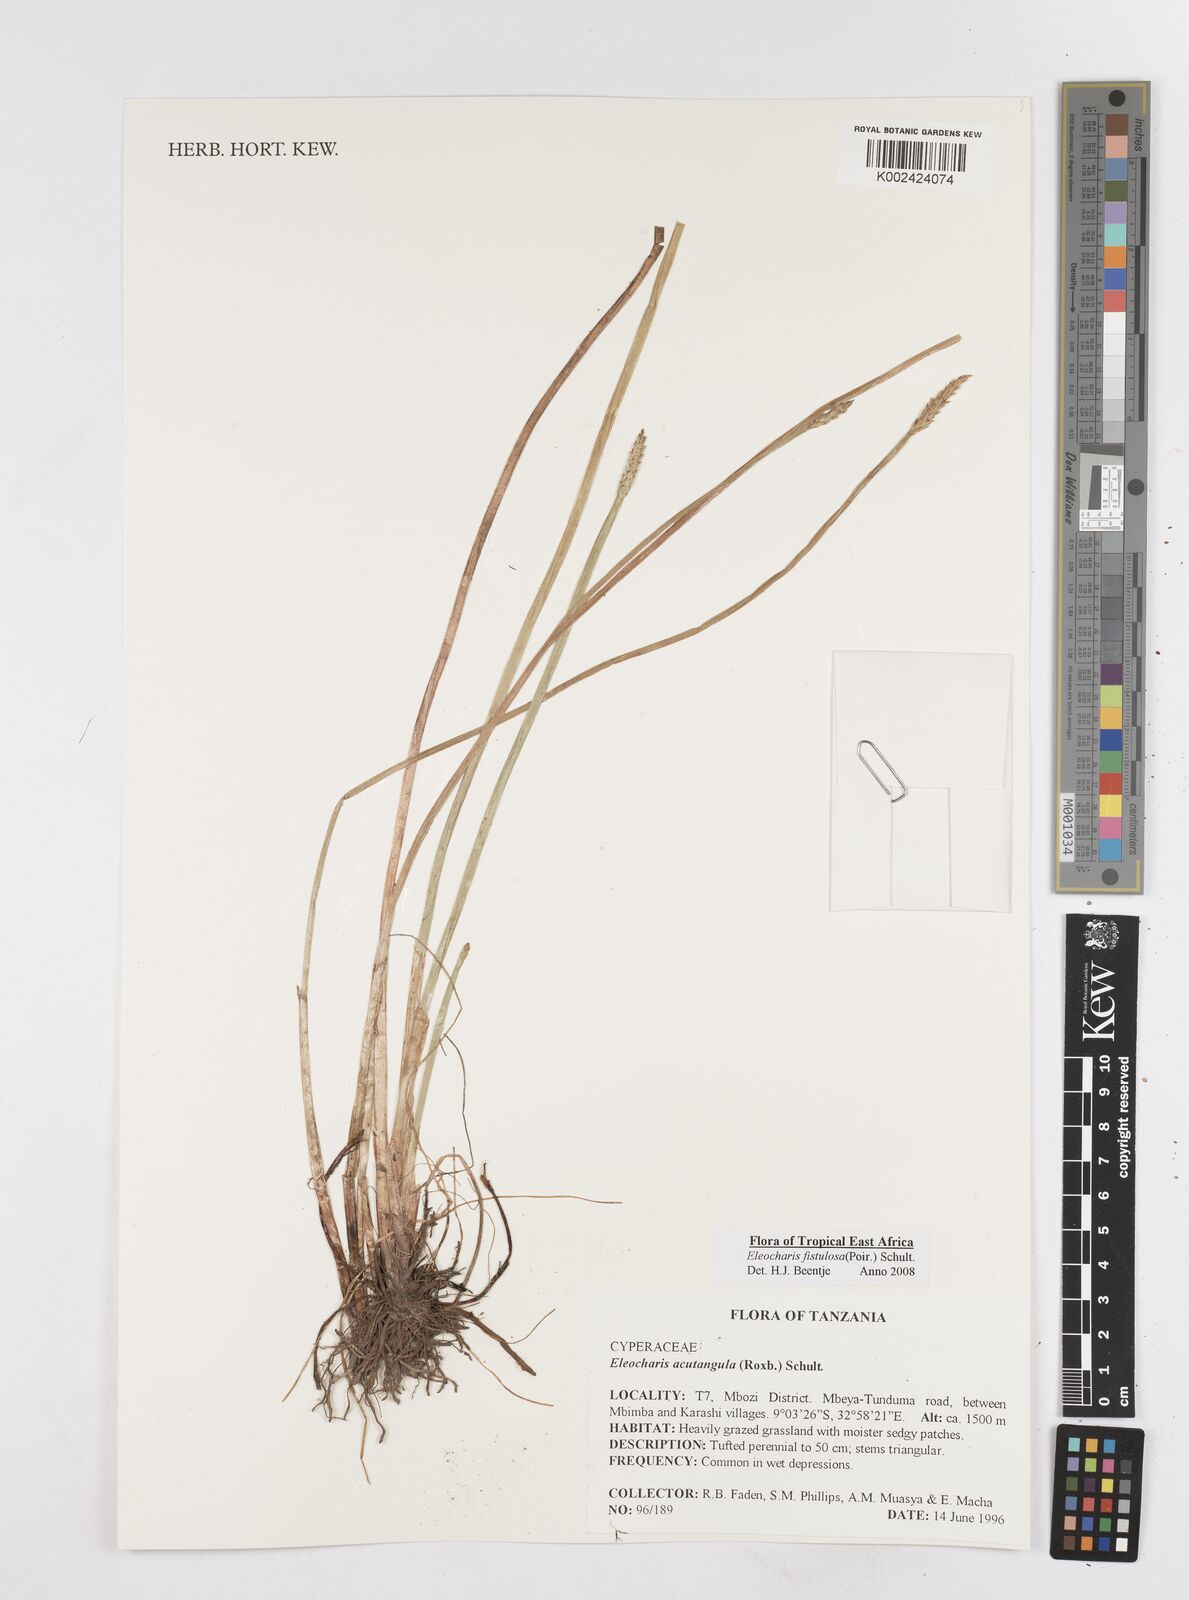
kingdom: Plantae
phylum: Tracheophyta
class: Liliopsida
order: Poales
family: Cyperaceae
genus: Eleocharis
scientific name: Eleocharis acutangula
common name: Acute spikerush
